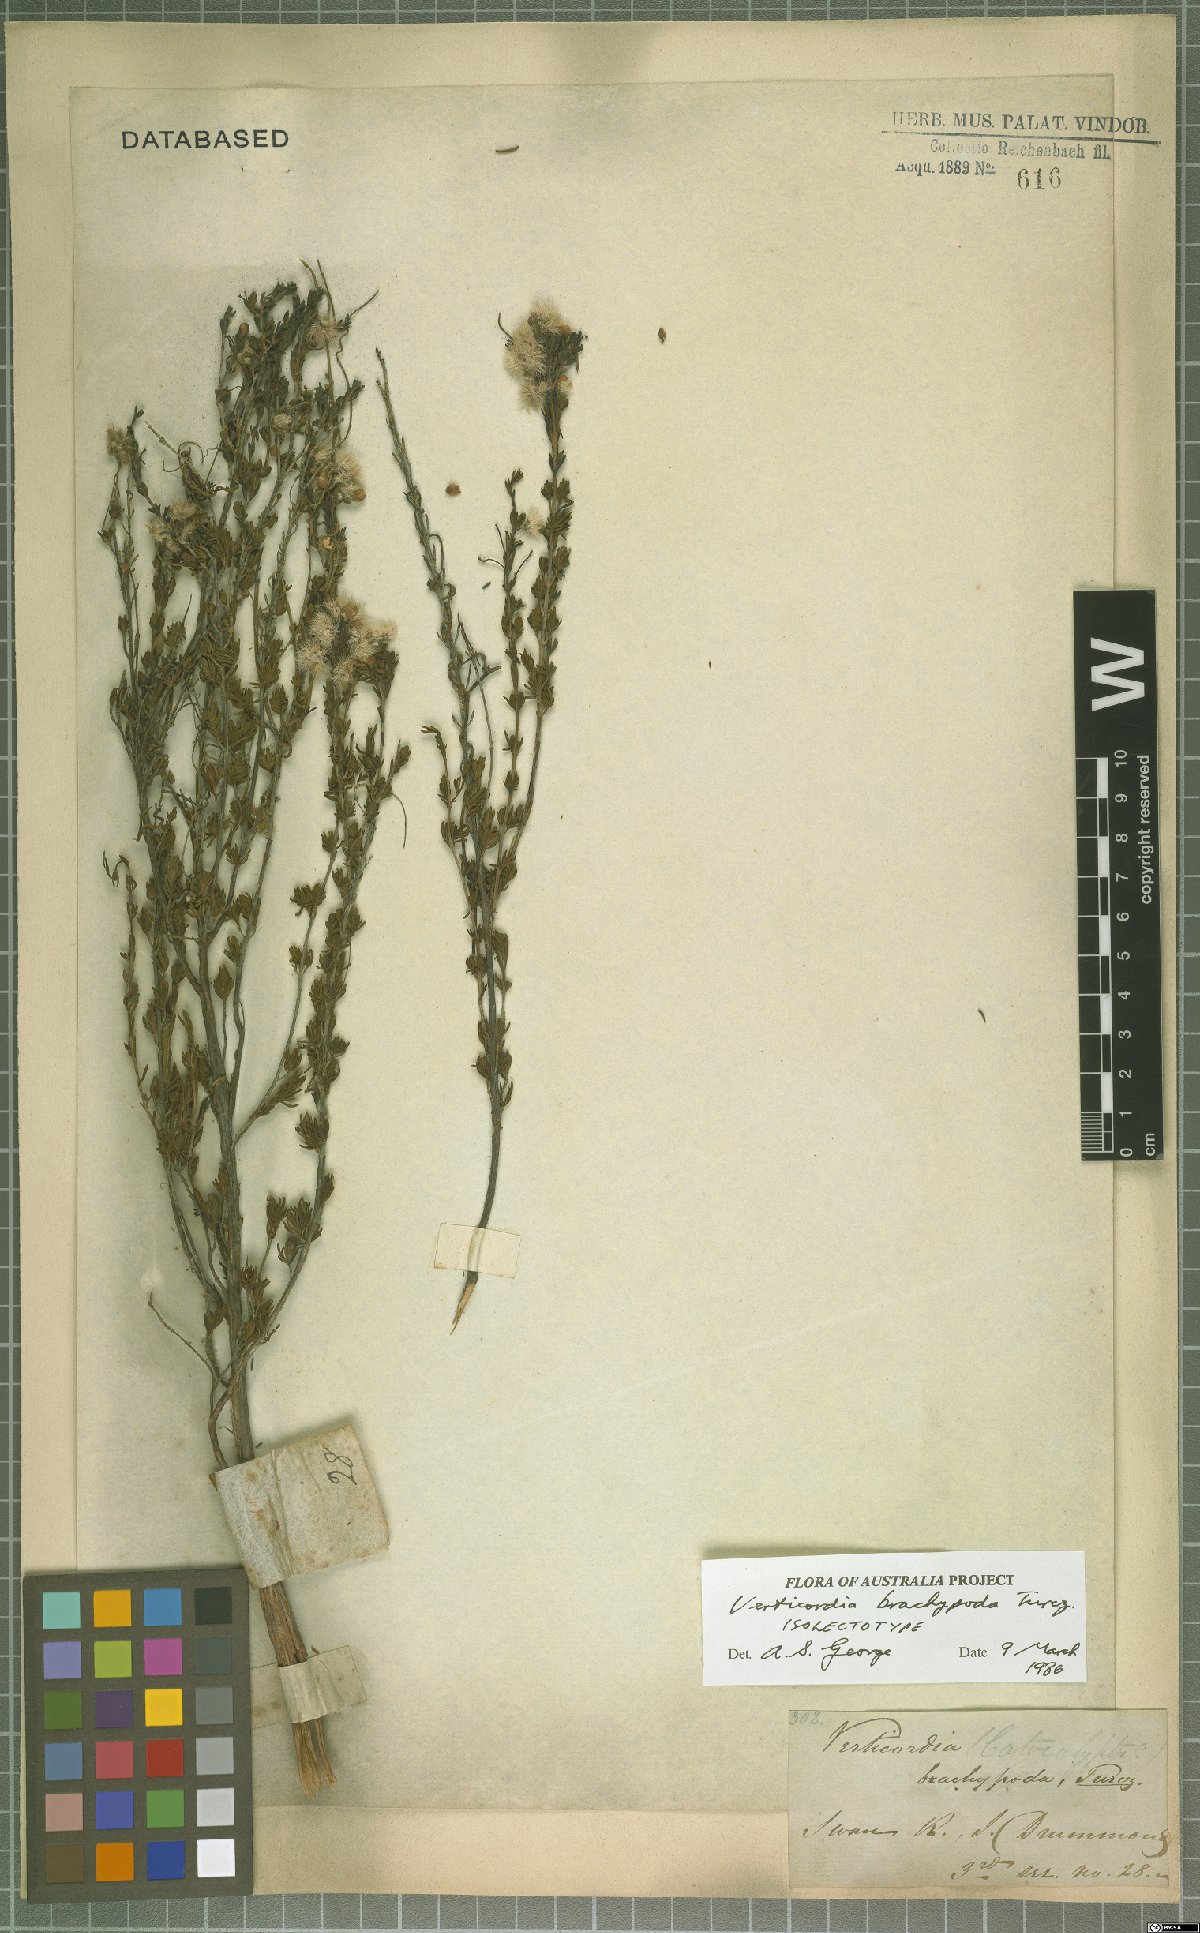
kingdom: Plantae
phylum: Tracheophyta
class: Magnoliopsida
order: Myrtales
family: Myrtaceae
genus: Verticordia
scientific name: Verticordia brachypoda
